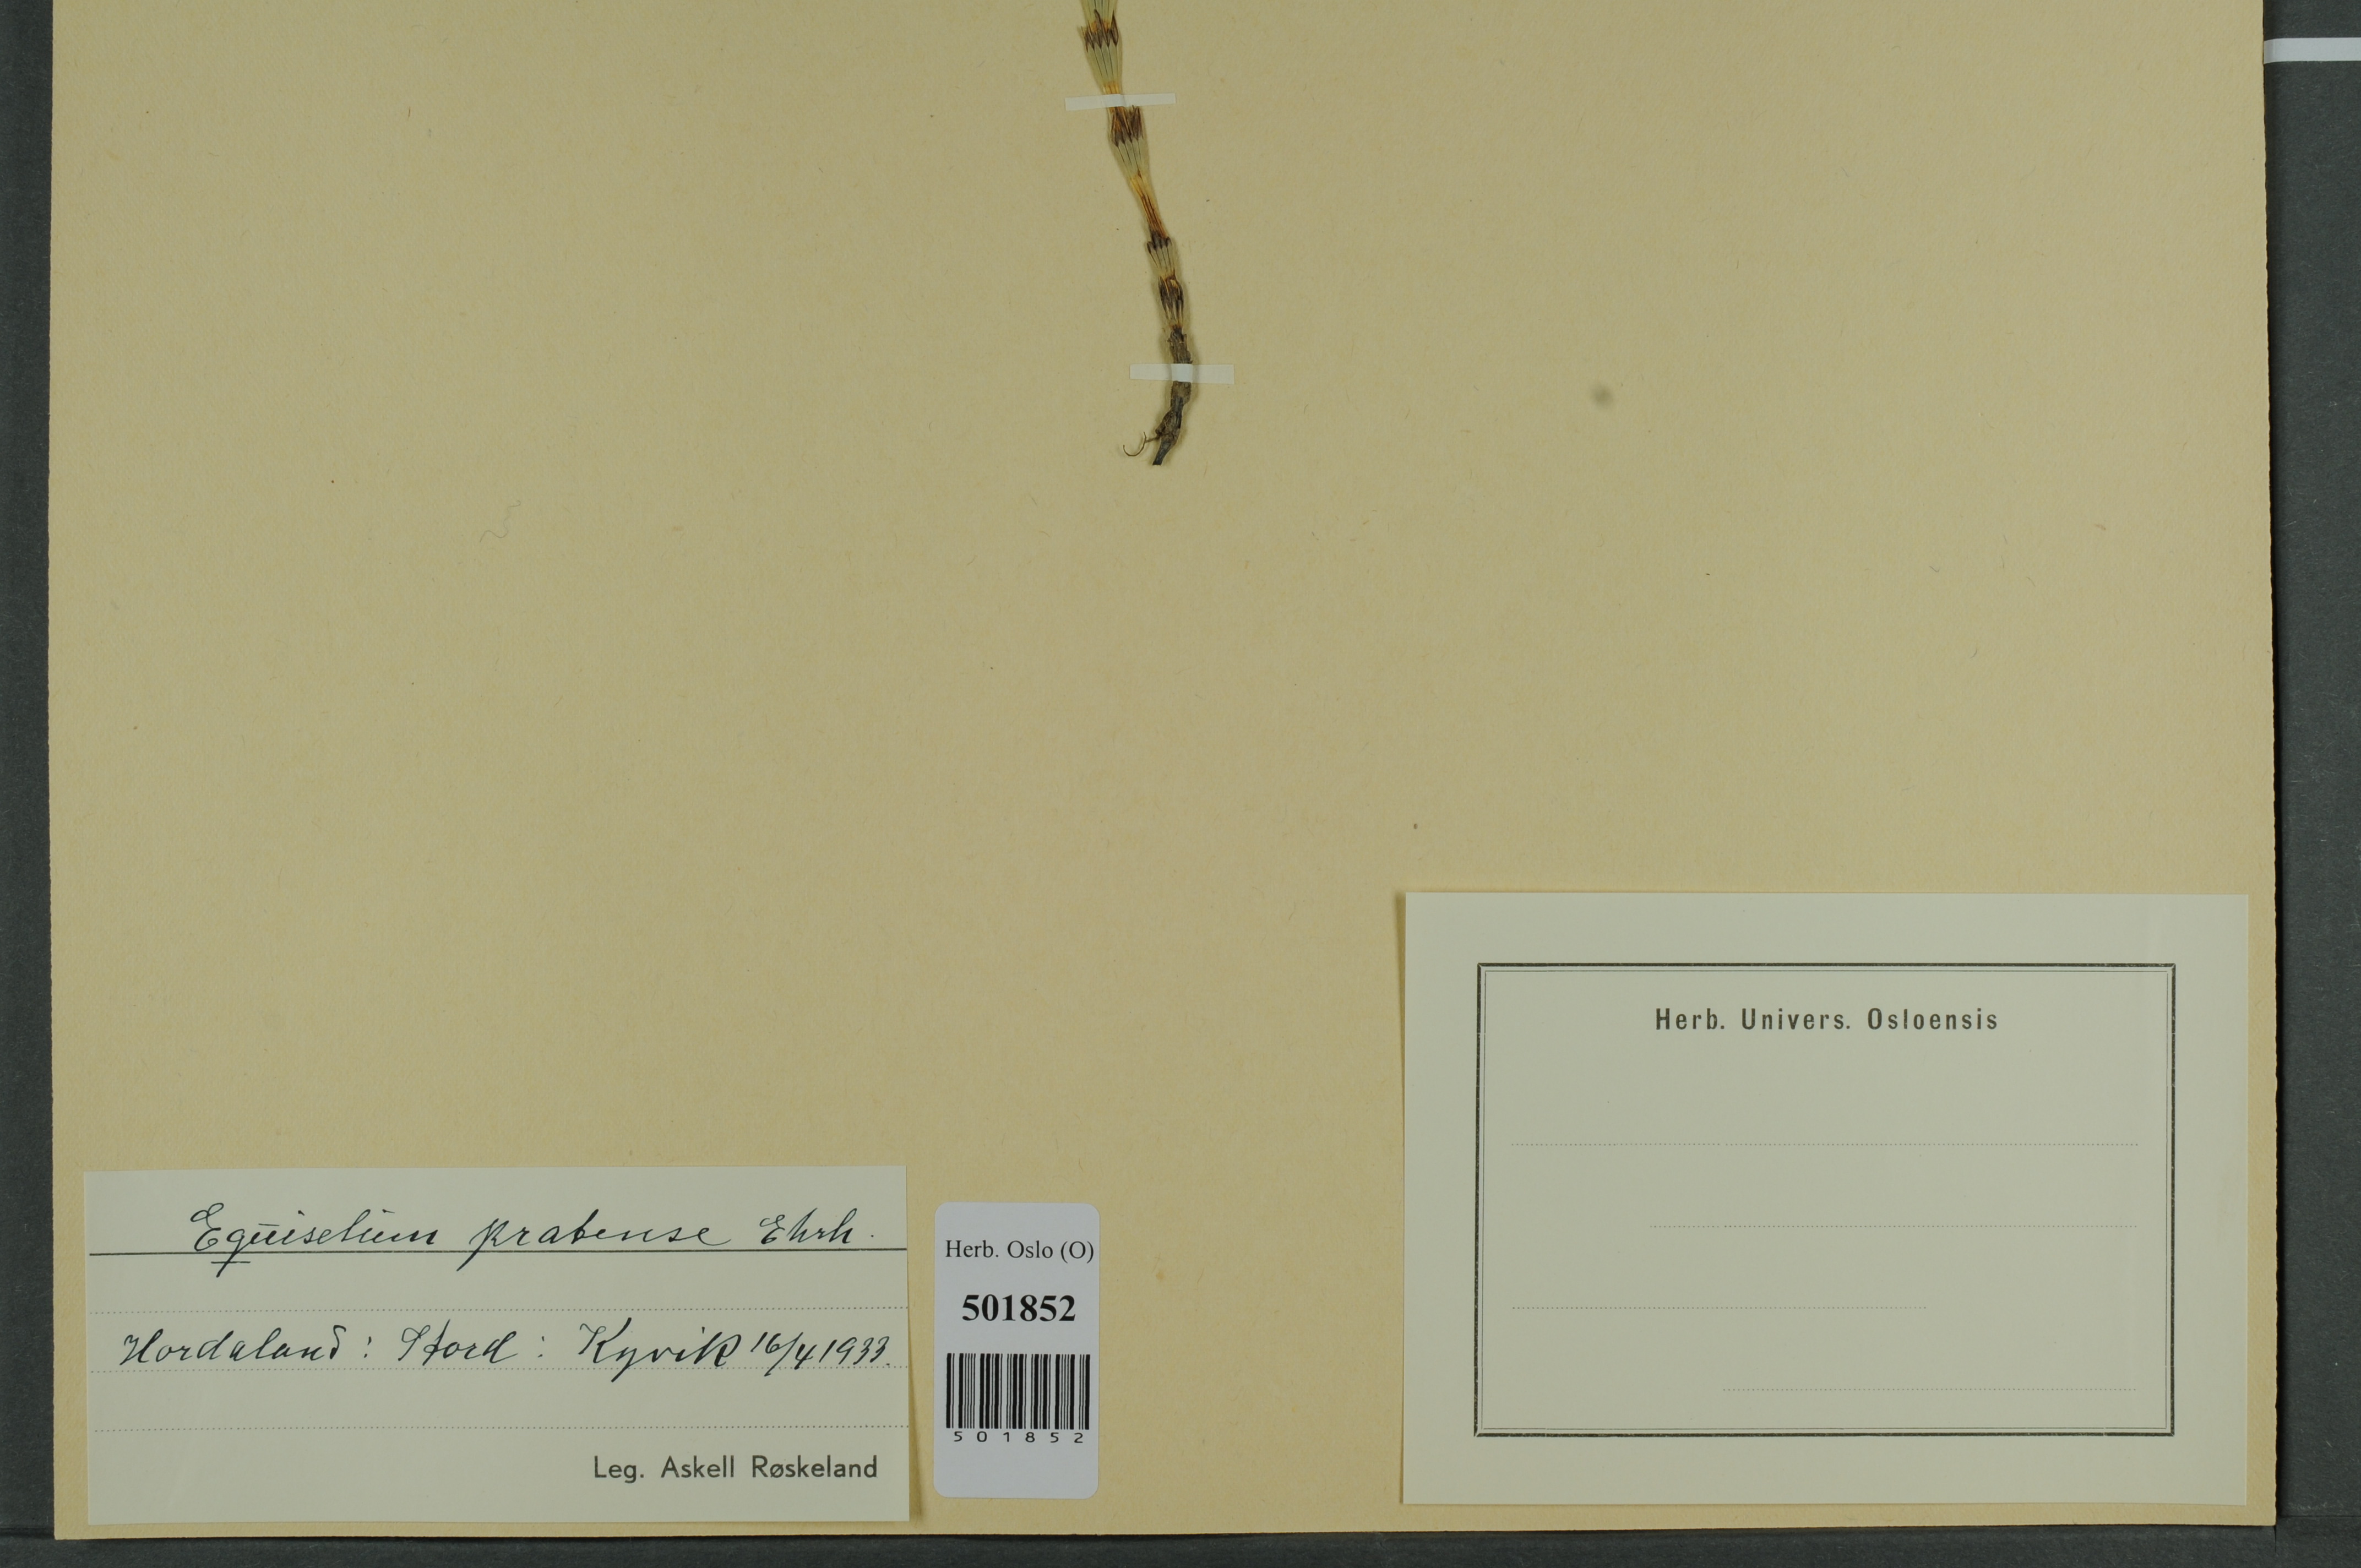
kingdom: Plantae
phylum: Tracheophyta
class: Polypodiopsida
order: Equisetales
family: Equisetaceae
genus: Equisetum
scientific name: Equisetum pratense
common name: Meadow horsetail
